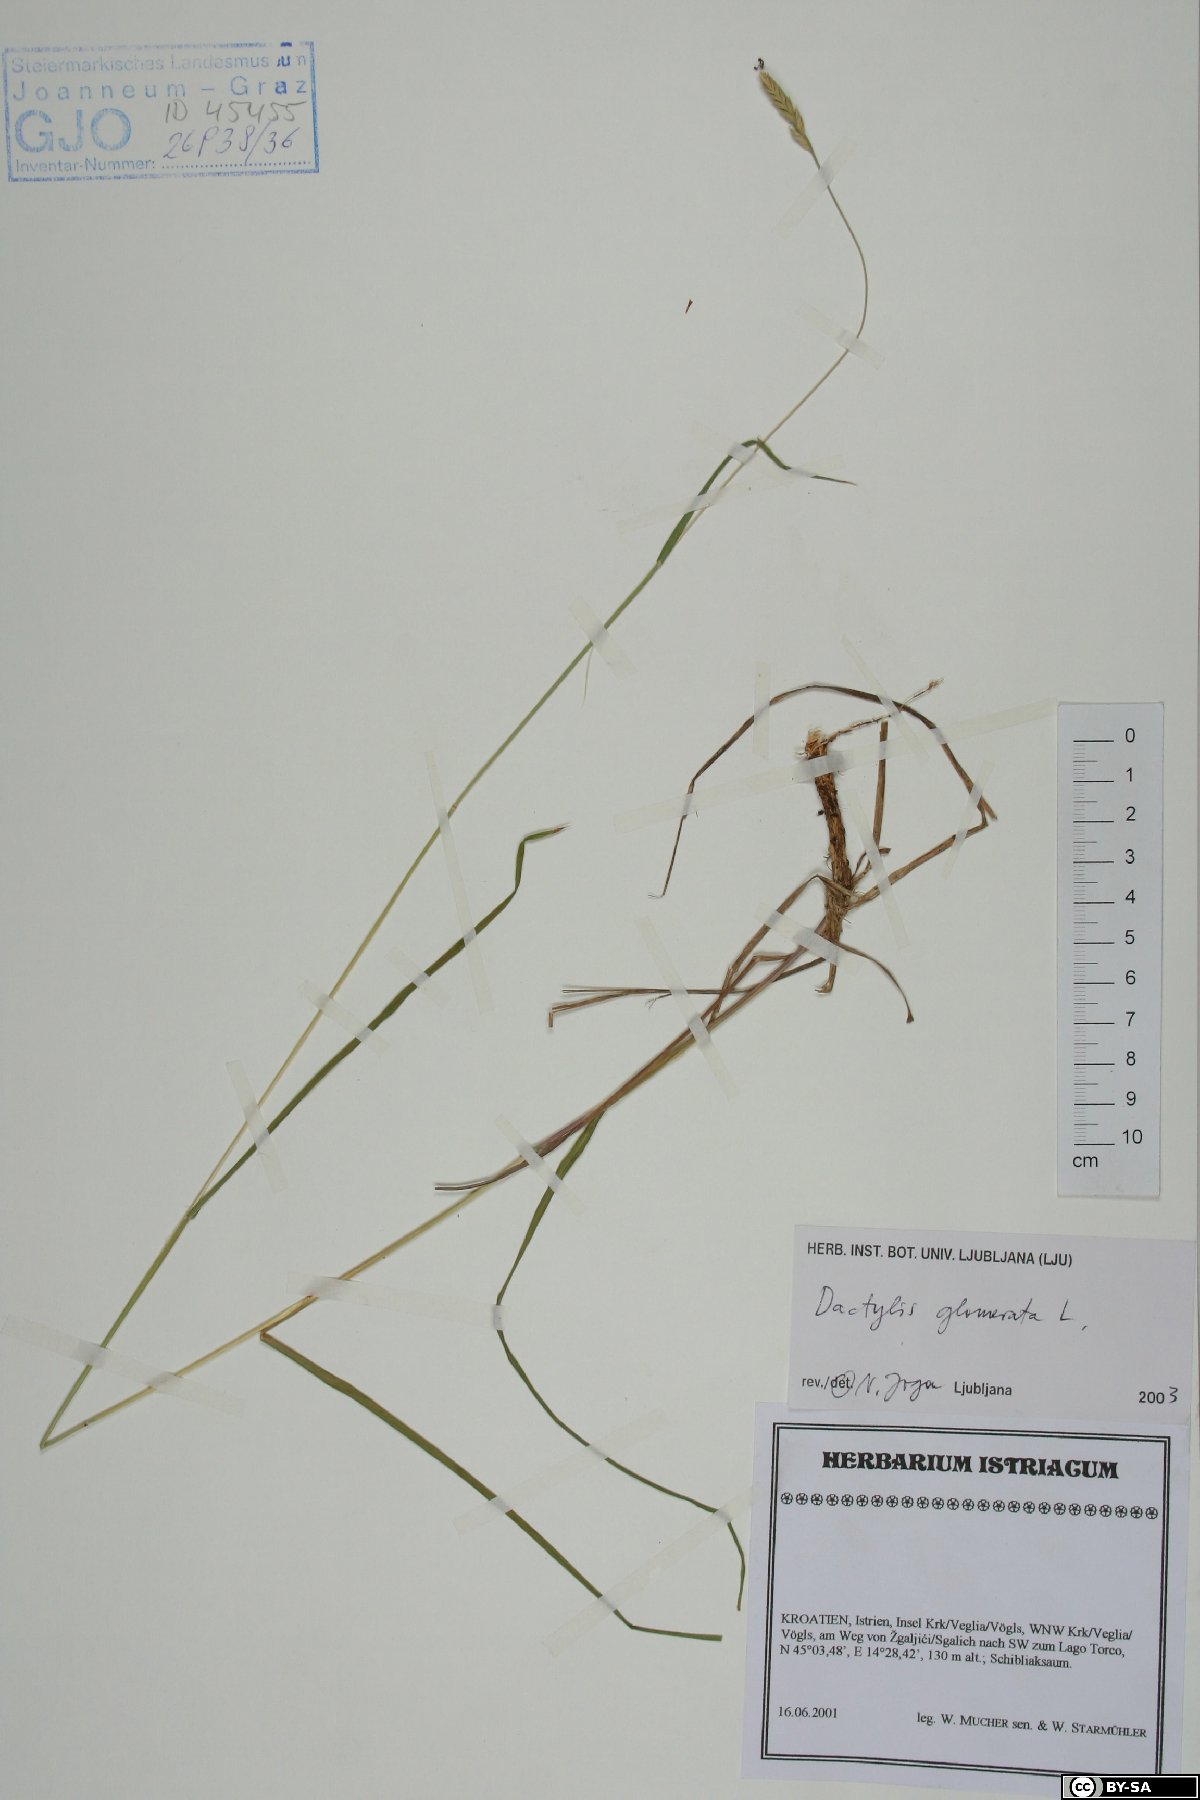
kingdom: Plantae
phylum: Tracheophyta
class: Liliopsida
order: Poales
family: Poaceae
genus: Dactylis
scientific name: Dactylis glomerata
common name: Orchardgrass
